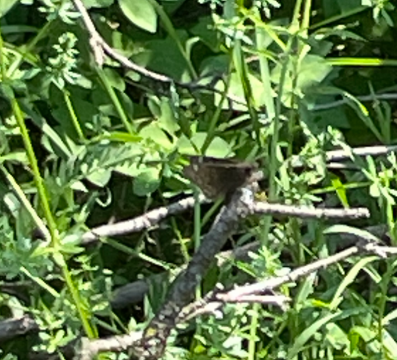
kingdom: Animalia
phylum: Arthropoda
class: Insecta
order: Lepidoptera
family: Hesperiidae
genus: Gesta
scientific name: Gesta
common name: Wild Indigo Duskywing
